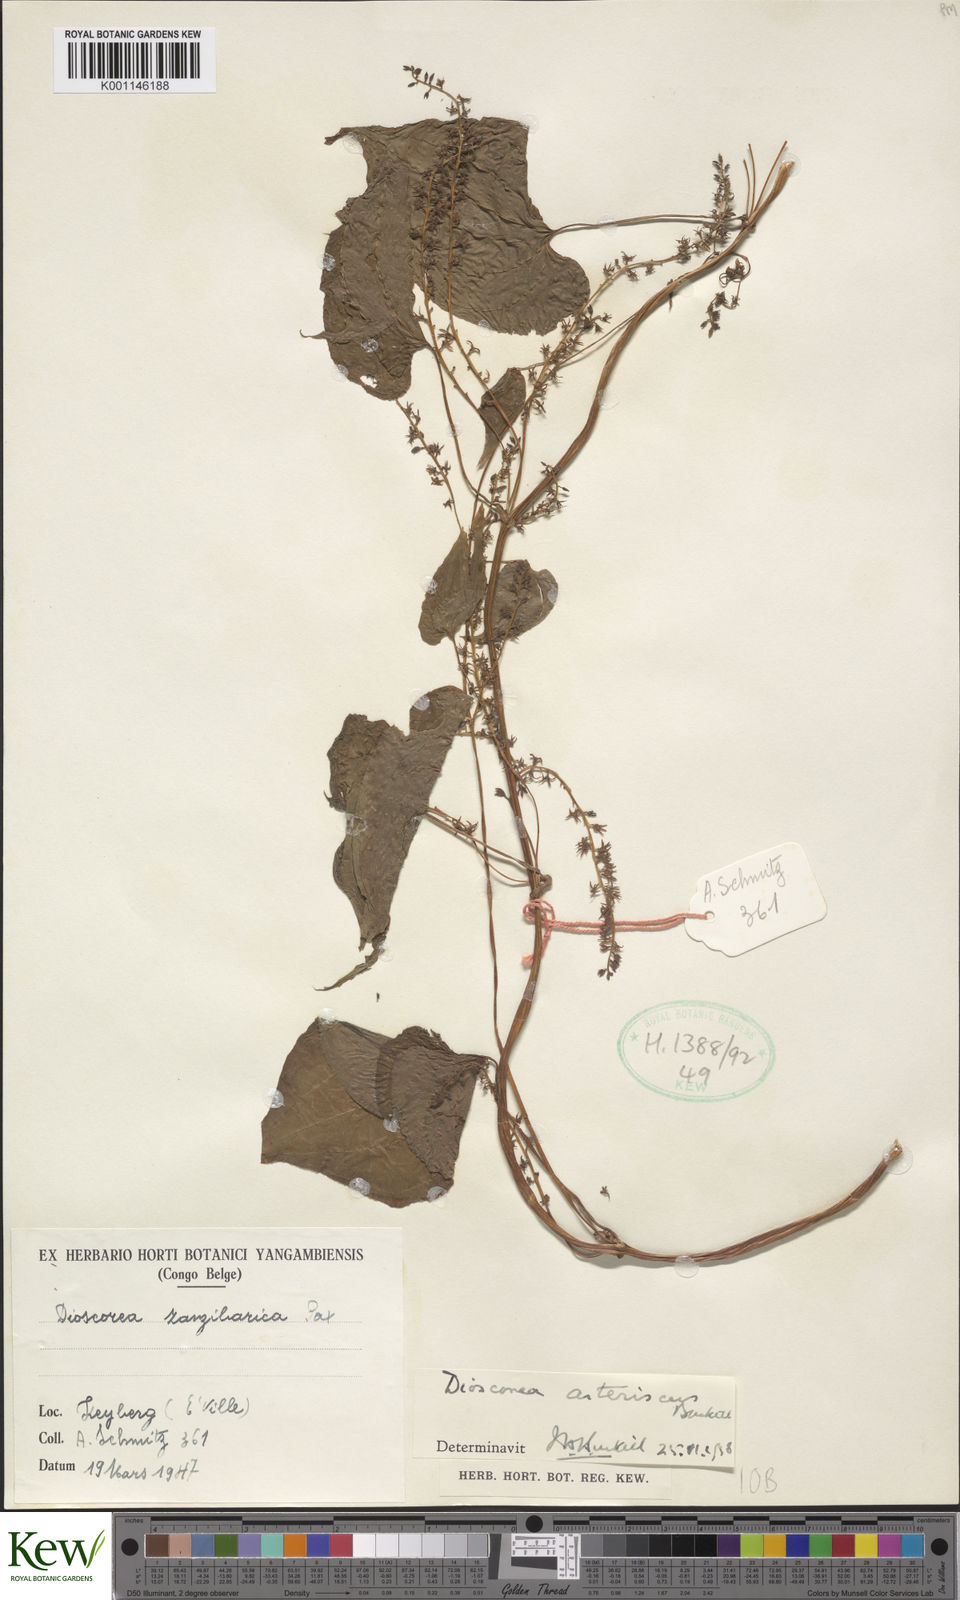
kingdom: Plantae
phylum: Tracheophyta
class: Liliopsida
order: Dioscoreales
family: Dioscoreaceae
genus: Dioscorea
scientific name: Dioscorea asteriscus
